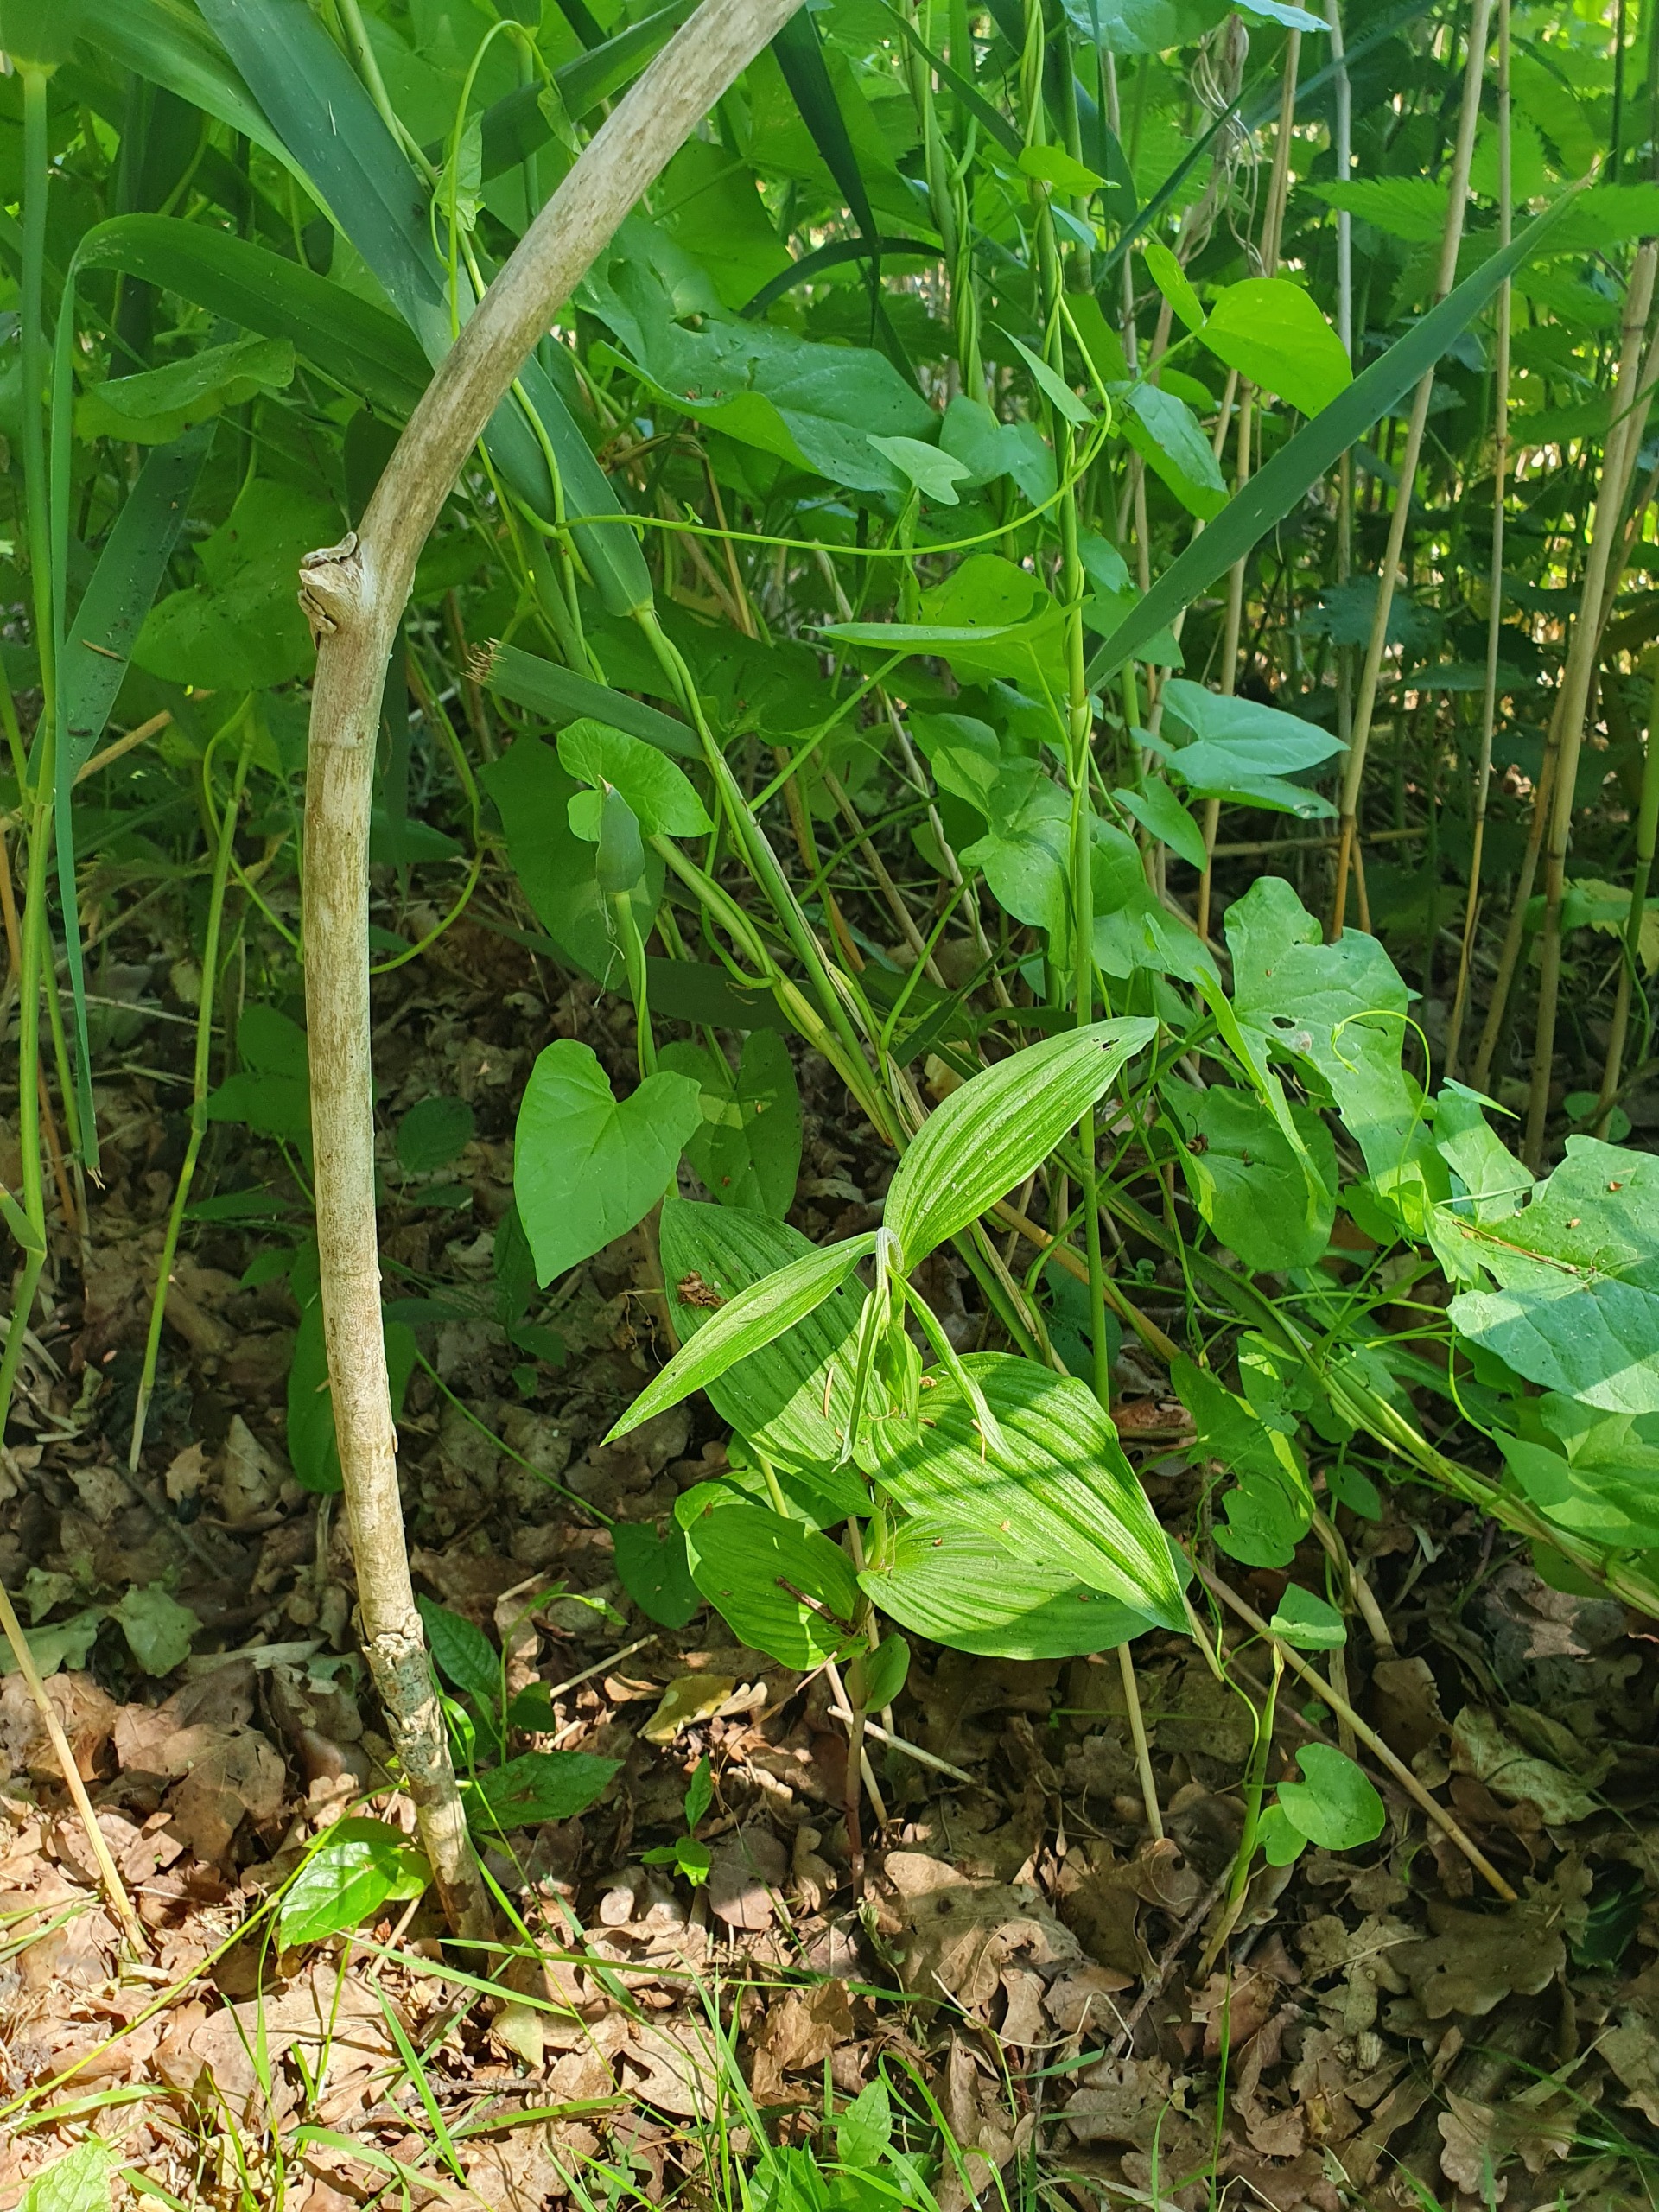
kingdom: Plantae
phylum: Tracheophyta
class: Liliopsida
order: Asparagales
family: Orchidaceae
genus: Epipactis
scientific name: Epipactis helleborine
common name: Skov-hullæbe
